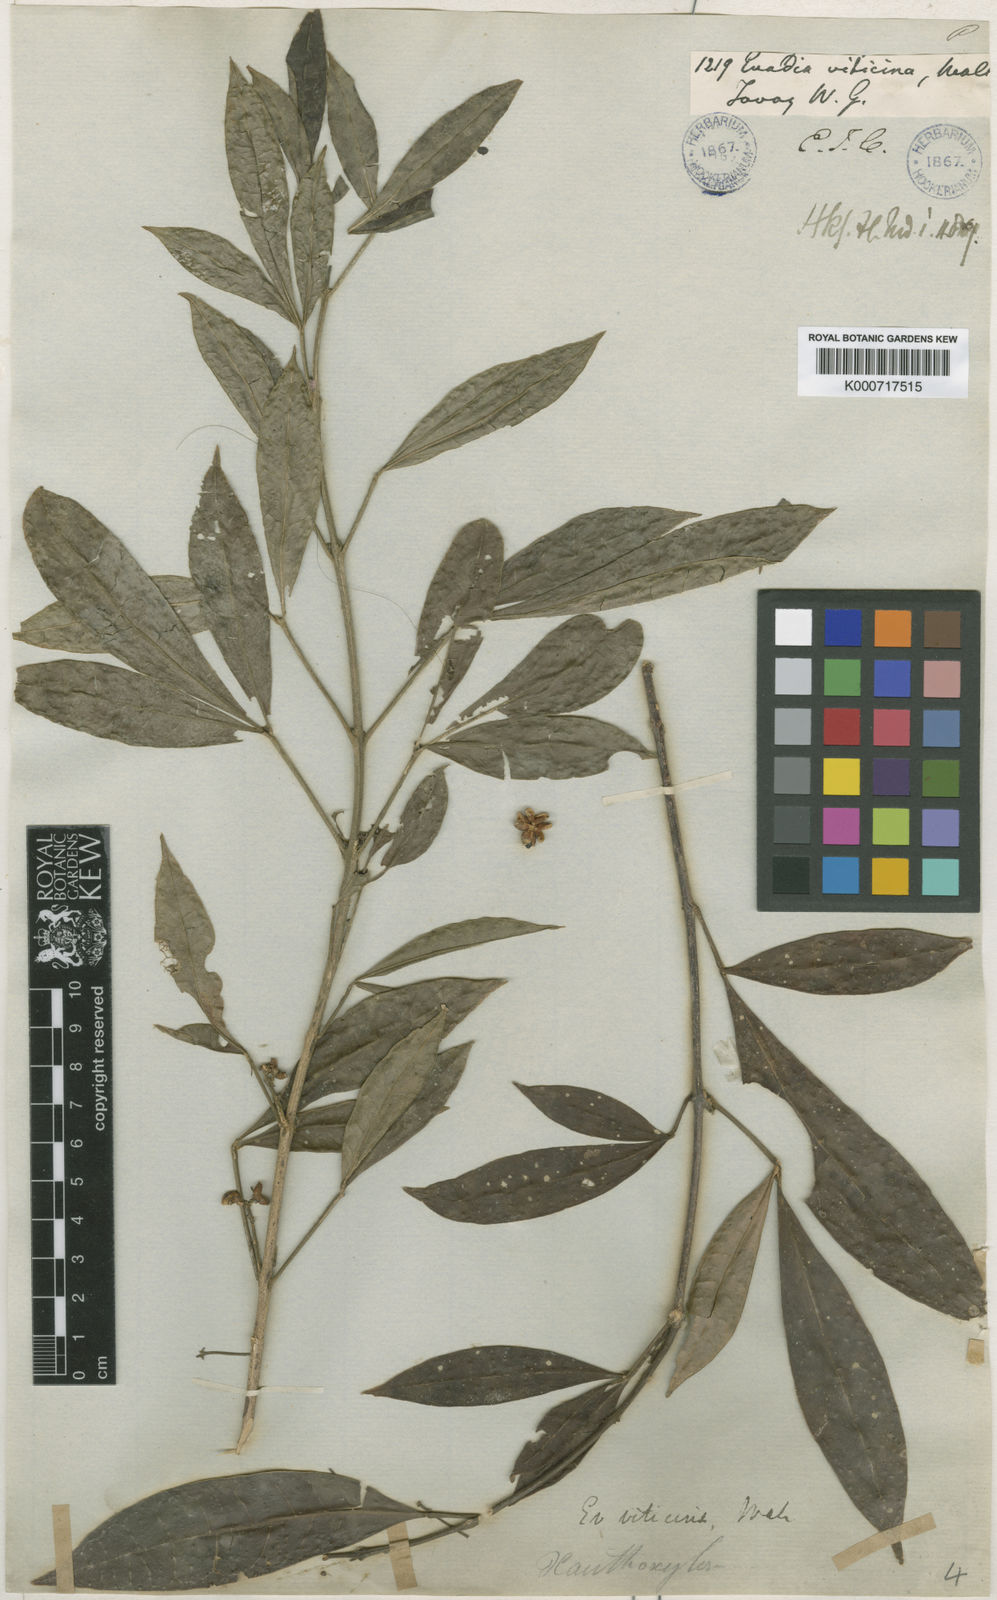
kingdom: Plantae
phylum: Tracheophyta
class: Magnoliopsida
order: Sapindales
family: Rutaceae
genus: Euodia
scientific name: Euodia
